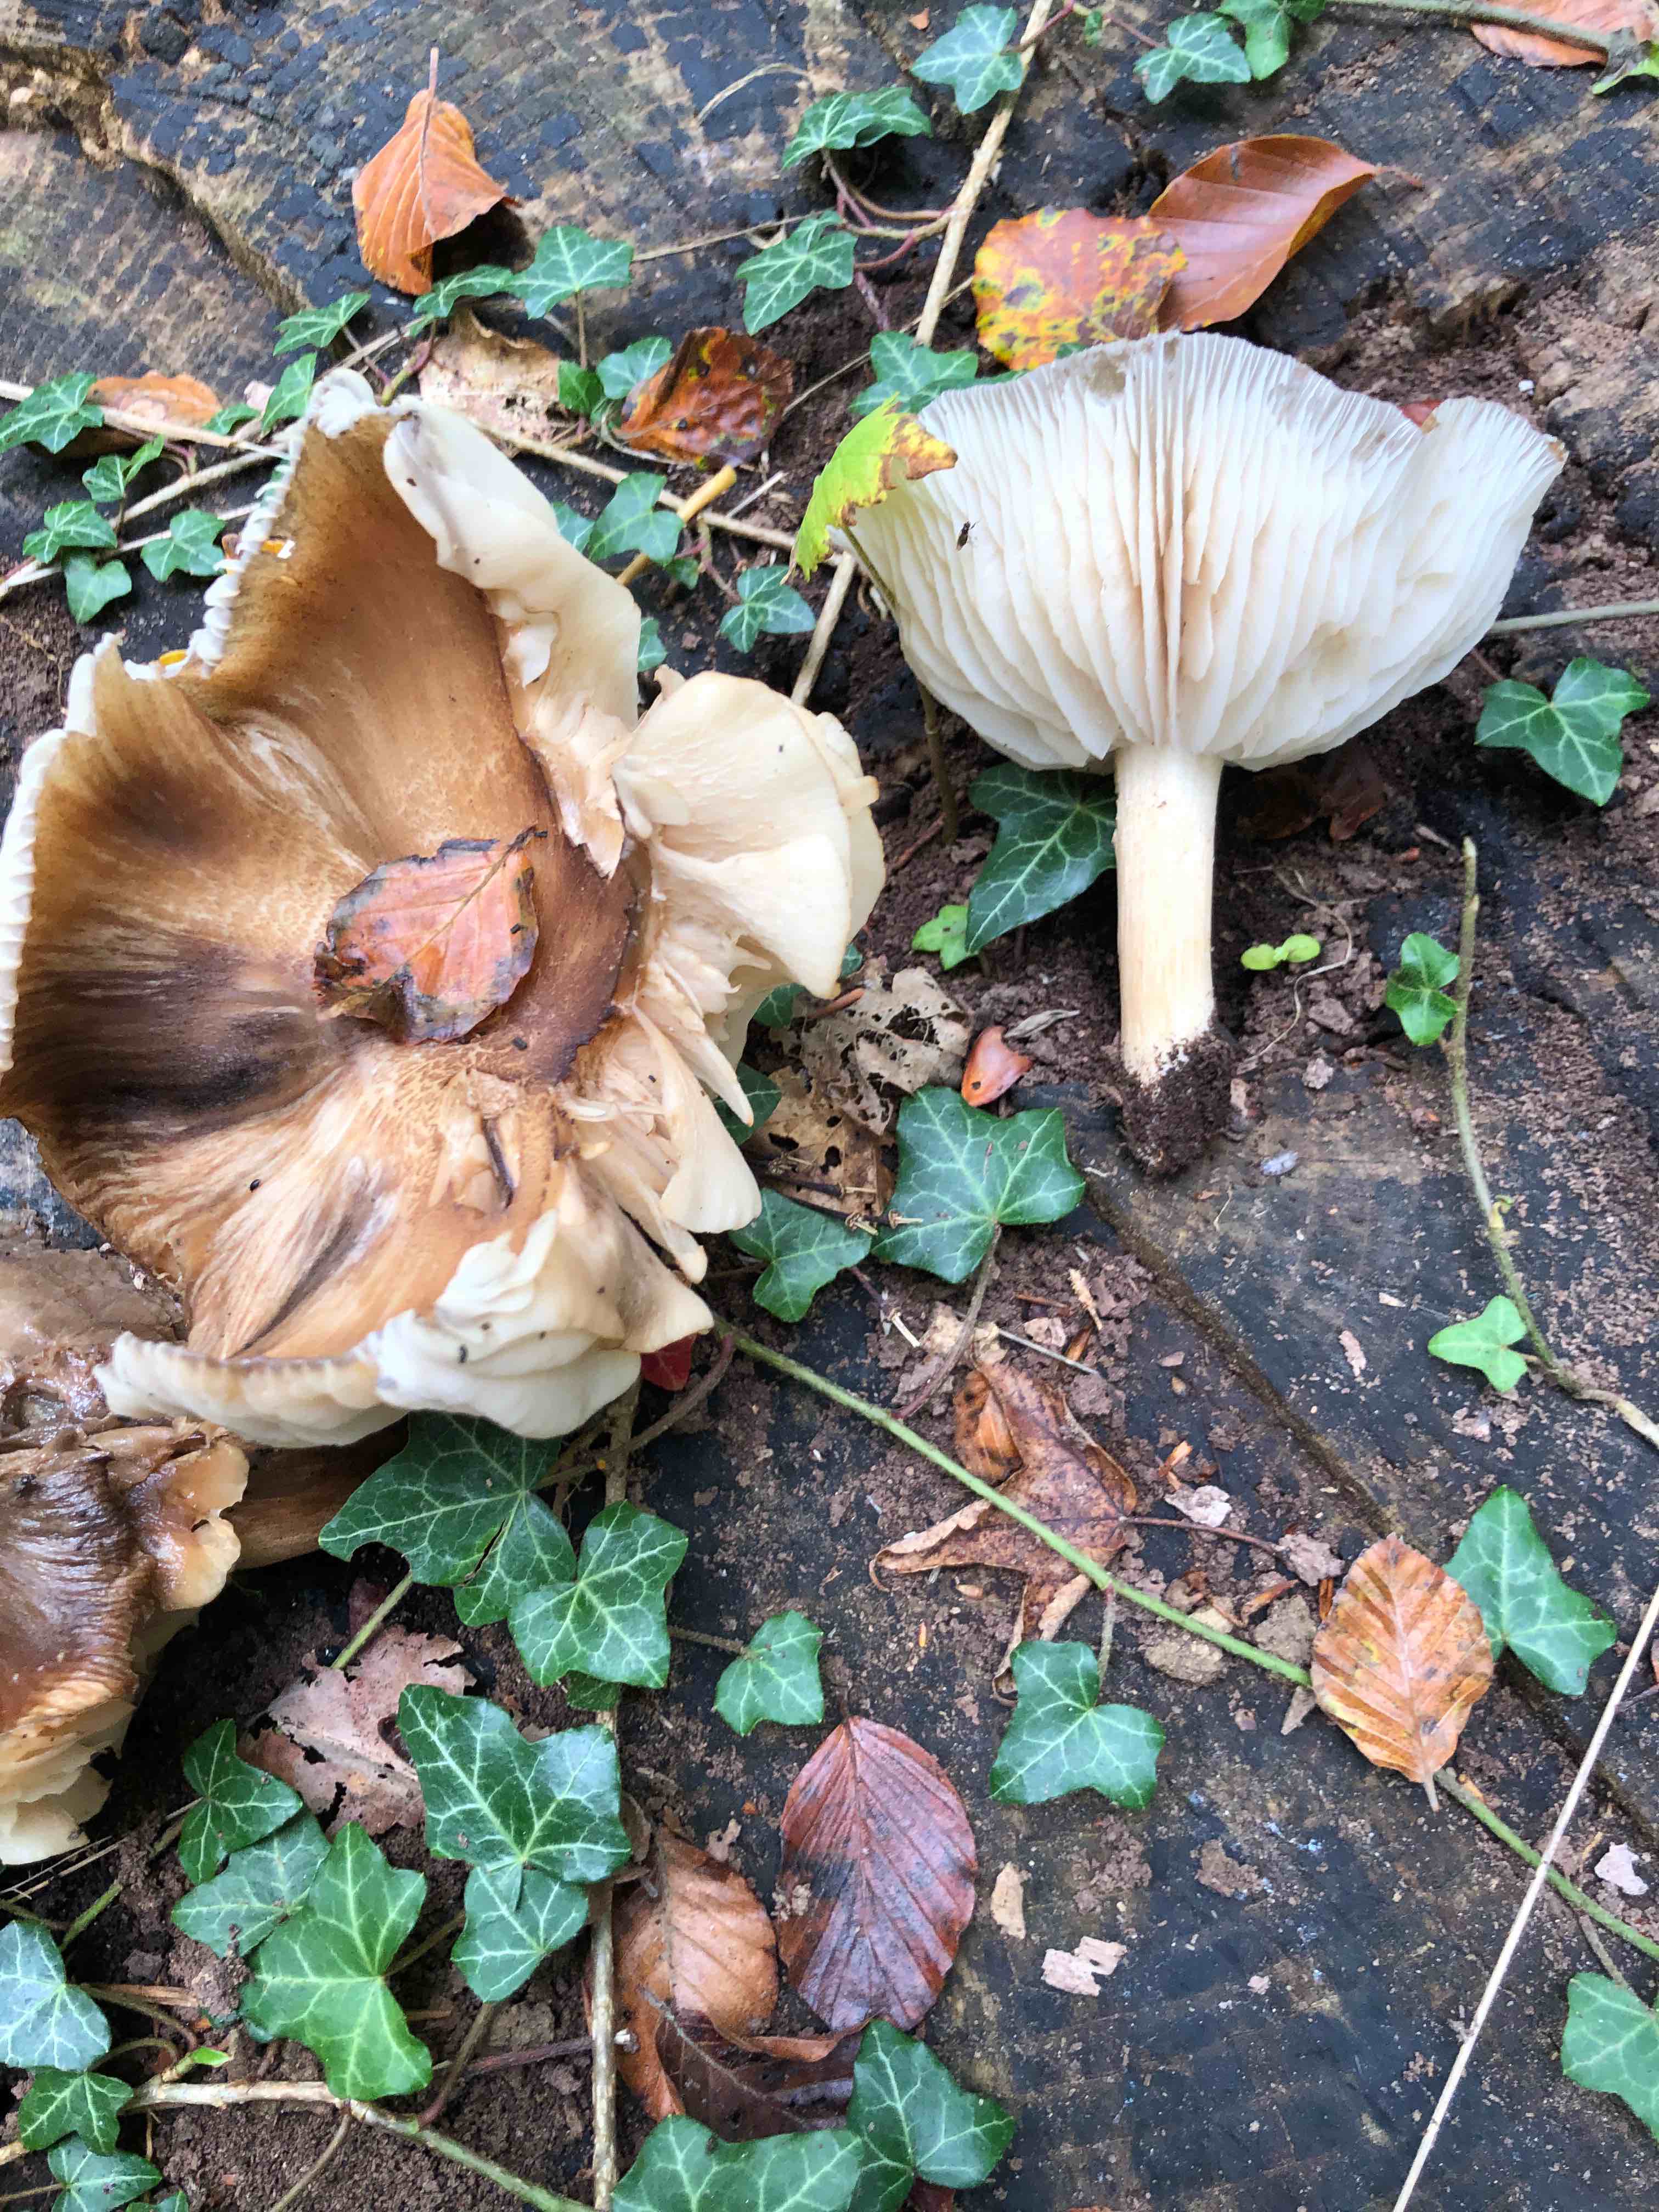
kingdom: Fungi
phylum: Basidiomycota
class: Agaricomycetes
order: Agaricales
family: Tricholomataceae
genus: Megacollybia
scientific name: Megacollybia platyphylla
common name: bredbladet væbnerhat
